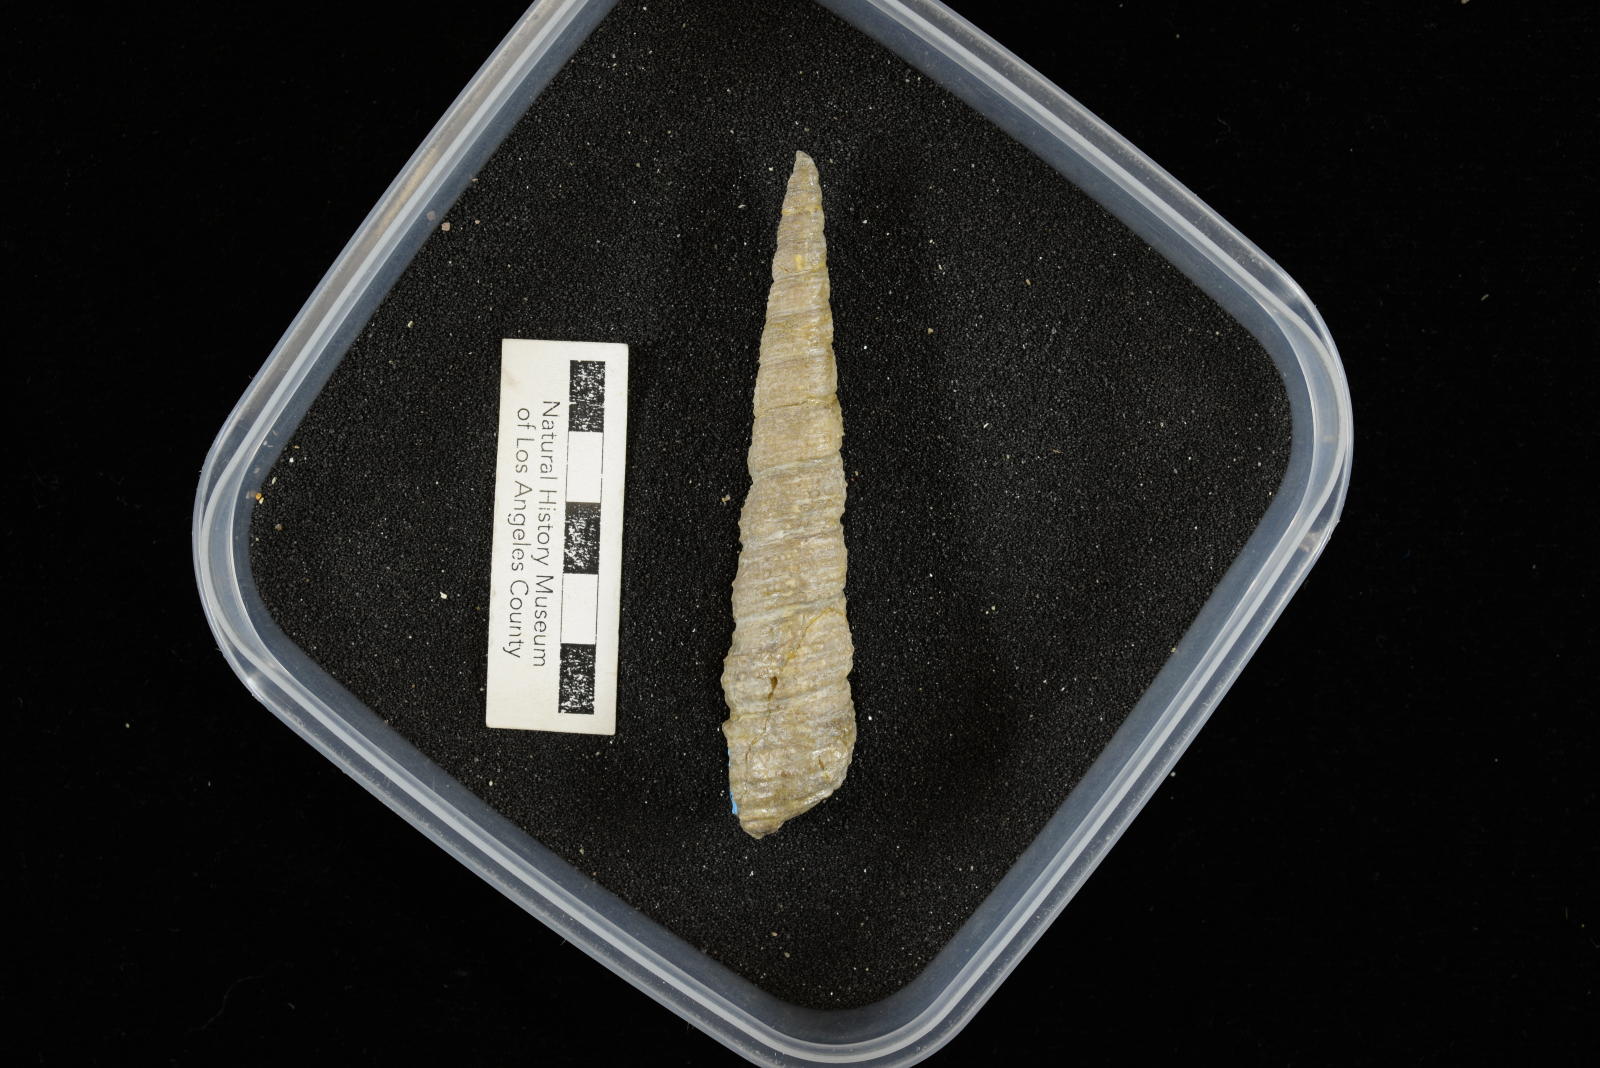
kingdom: Animalia
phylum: Mollusca
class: Gastropoda
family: Turritellidae
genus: Turritella
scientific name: Turritella chicoensis
